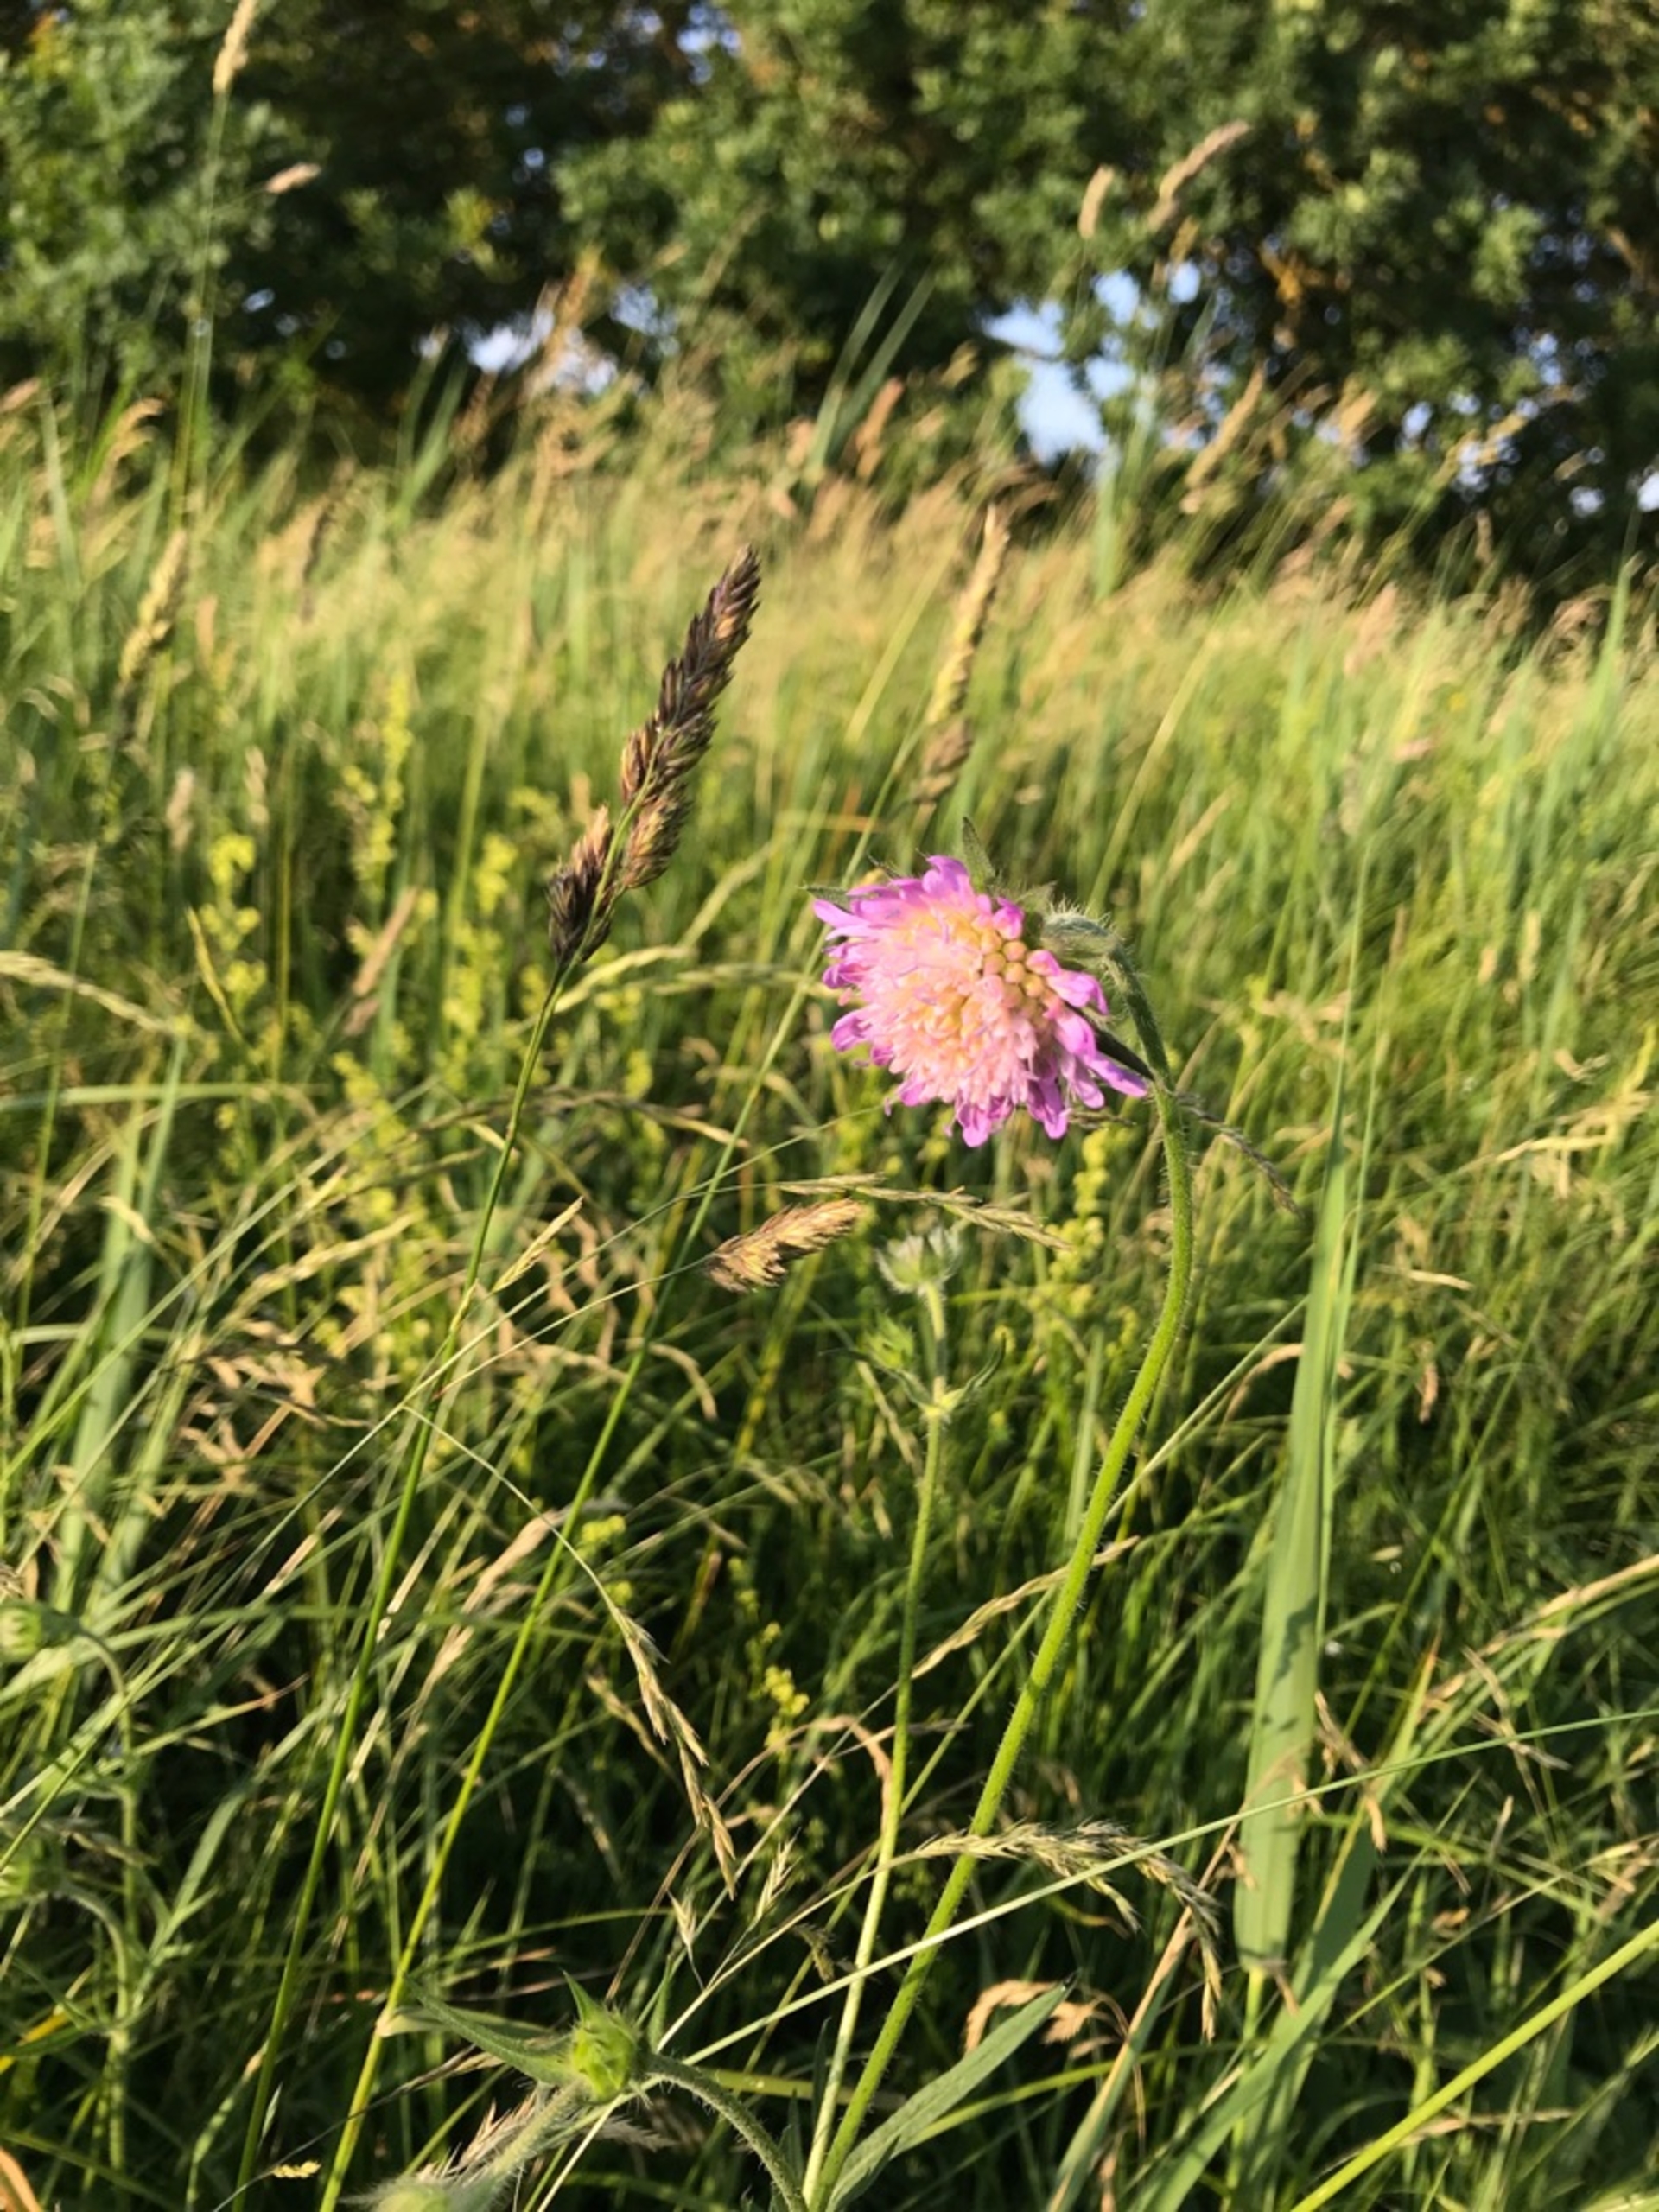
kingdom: Plantae
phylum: Tracheophyta
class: Magnoliopsida
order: Dipsacales
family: Caprifoliaceae
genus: Knautia
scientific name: Knautia arvensis
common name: Blåhat
